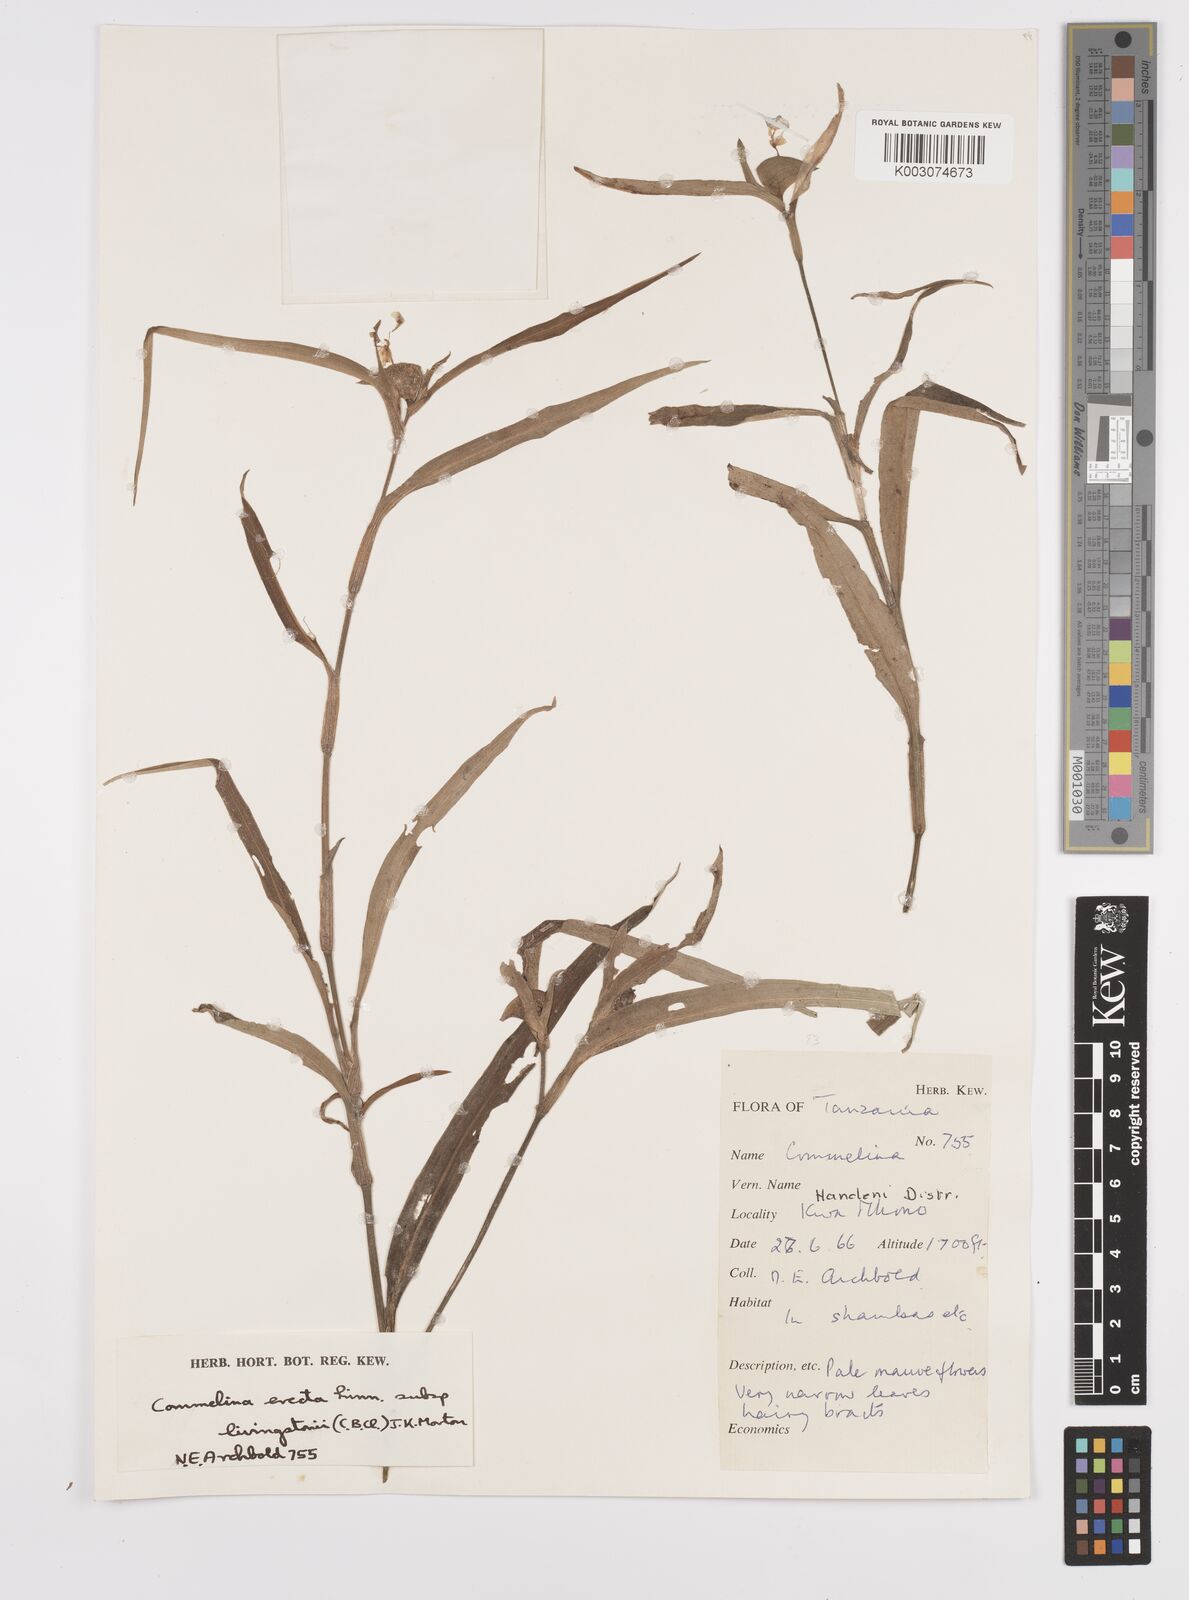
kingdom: Plantae
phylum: Tracheophyta
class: Liliopsida
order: Commelinales
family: Commelinaceae
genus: Commelina
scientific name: Commelina erecta
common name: Blousel blommetjie
